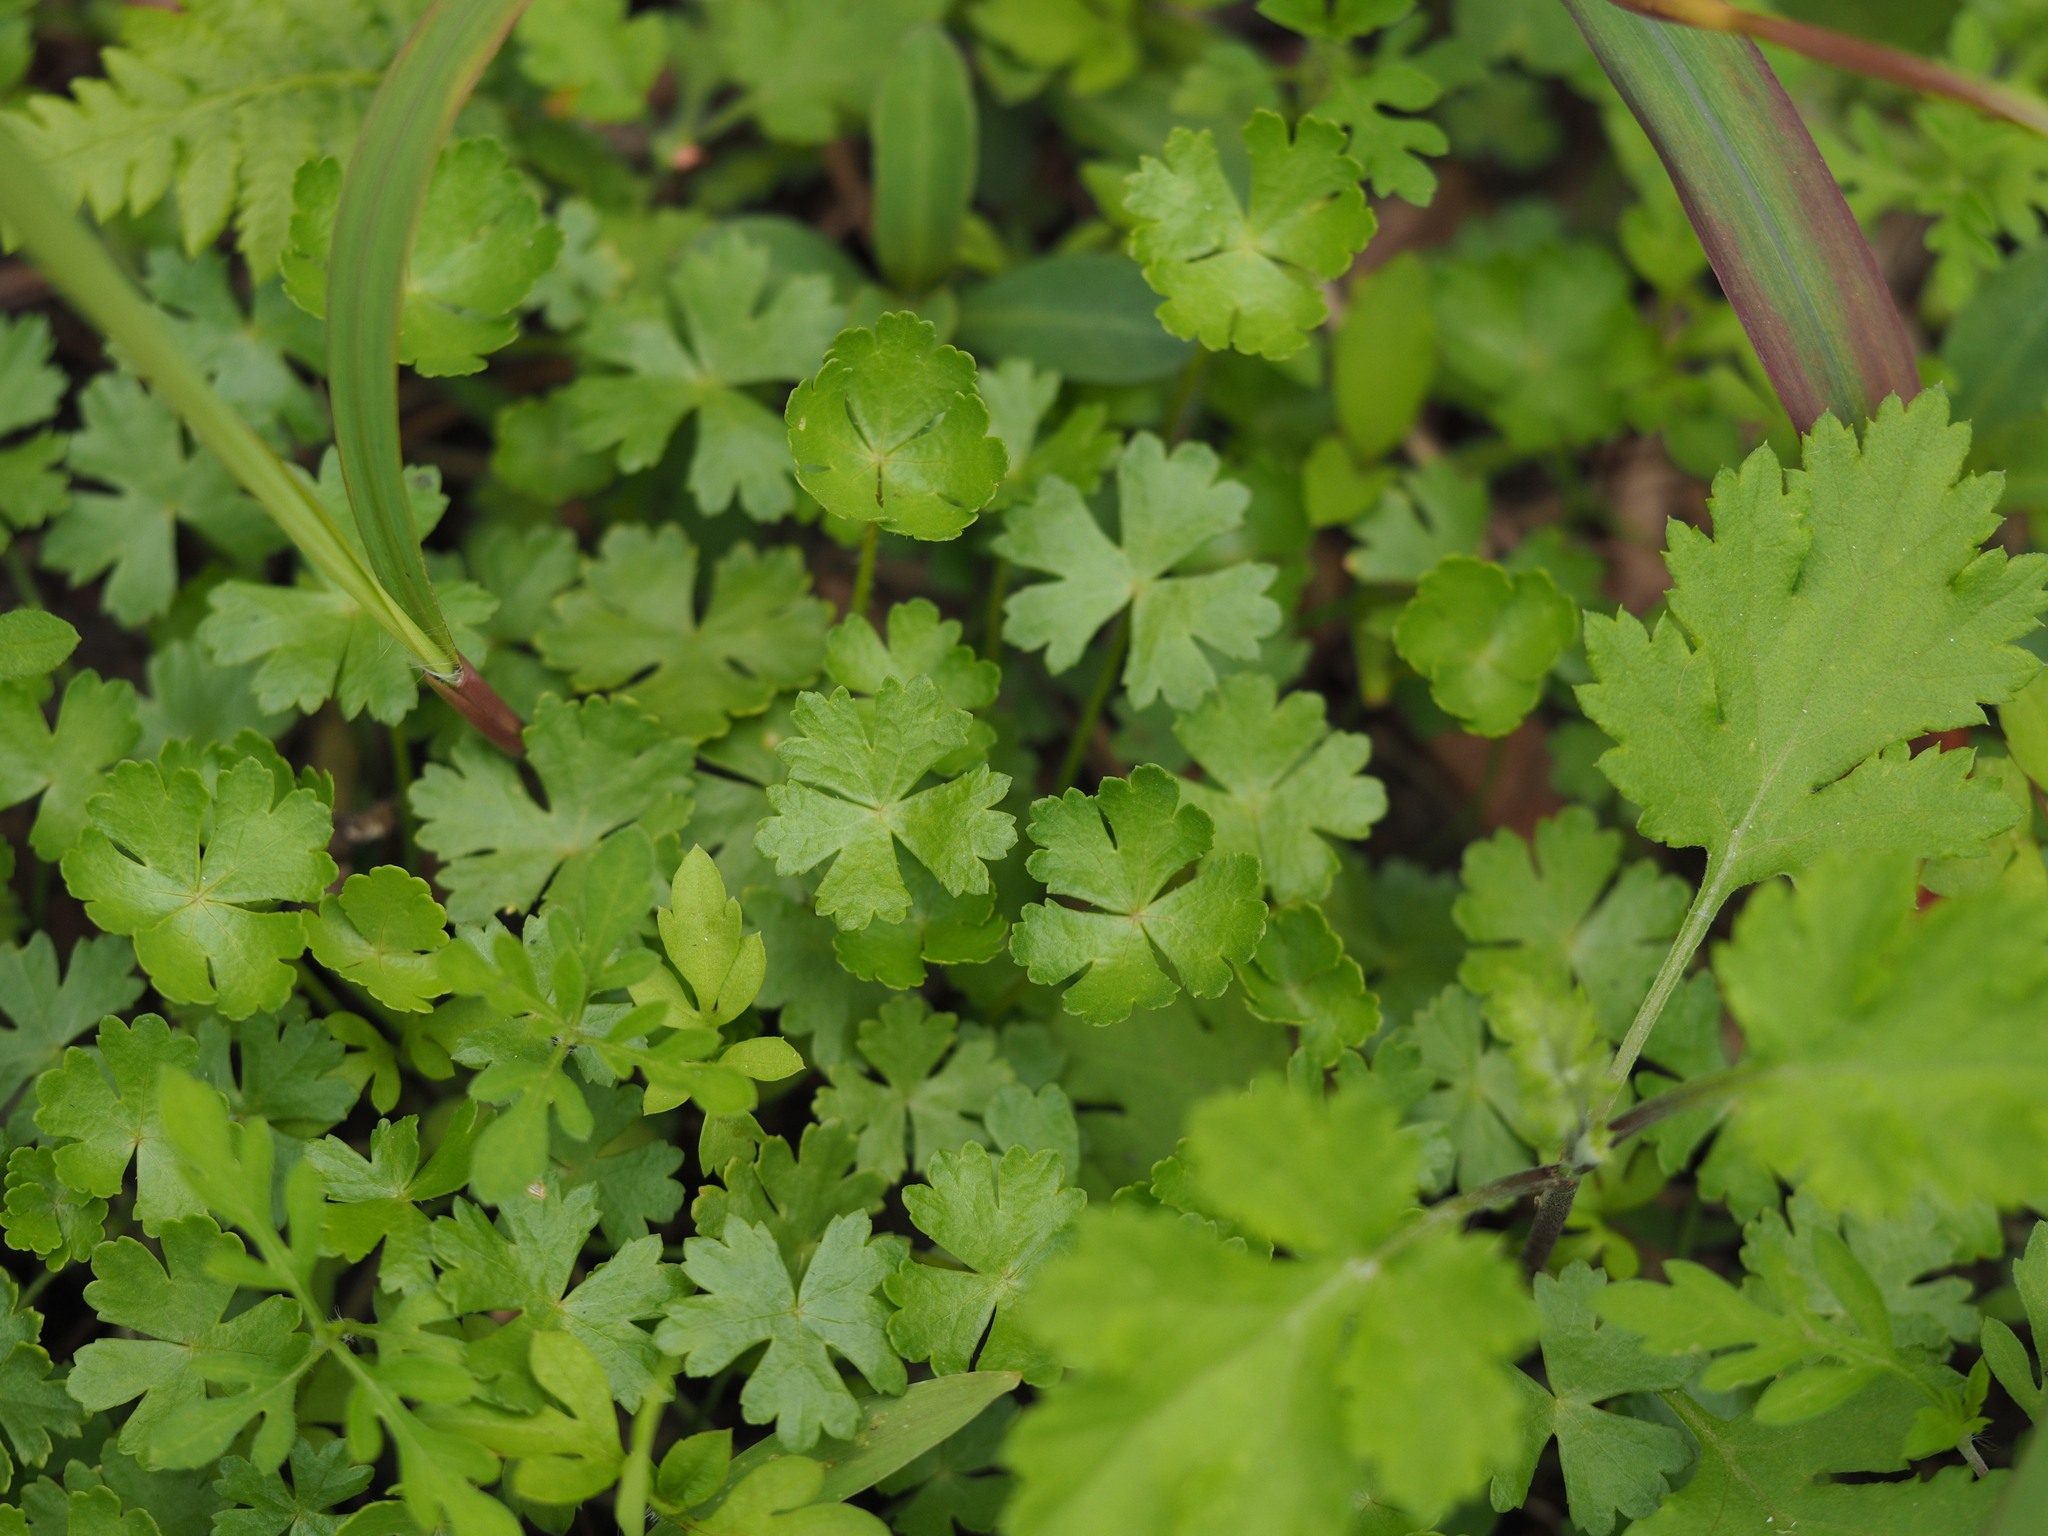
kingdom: Plantae
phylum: Tracheophyta
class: Magnoliopsida
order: Apiales
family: Araliaceae
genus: Hydrocotyle
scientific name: Hydrocotyle batrachium
